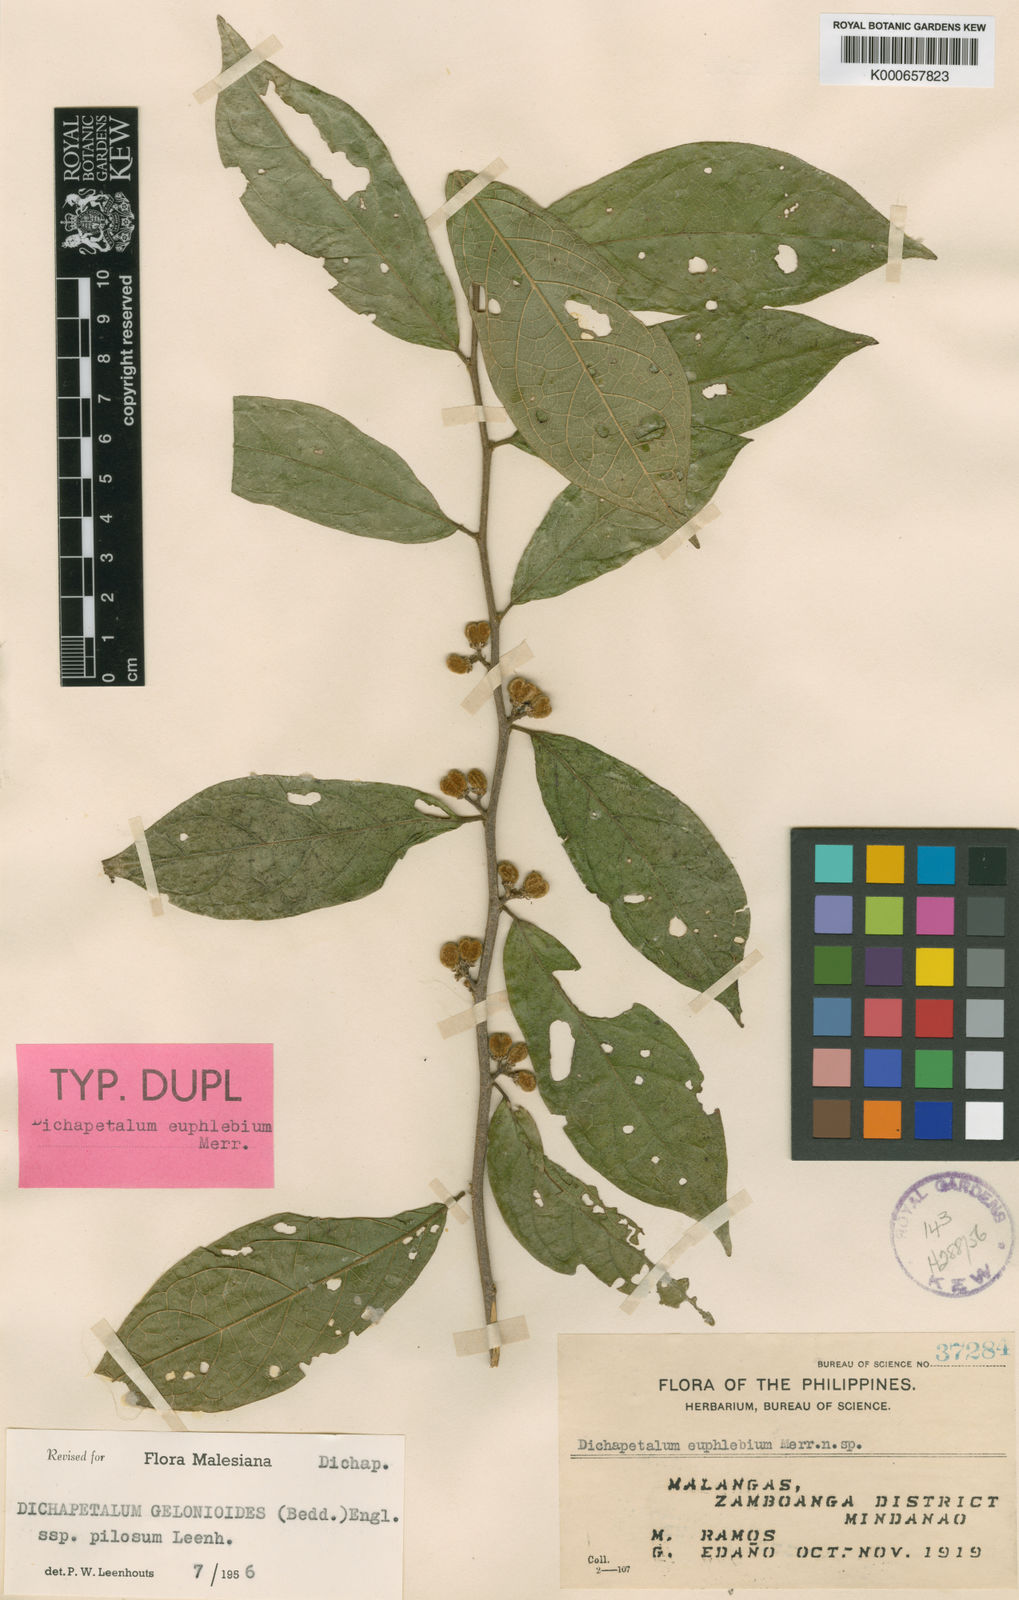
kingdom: Plantae
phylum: Tracheophyta
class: Magnoliopsida
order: Malpighiales
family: Dichapetalaceae
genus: Dichapetalum
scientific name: Dichapetalum gelonioides
